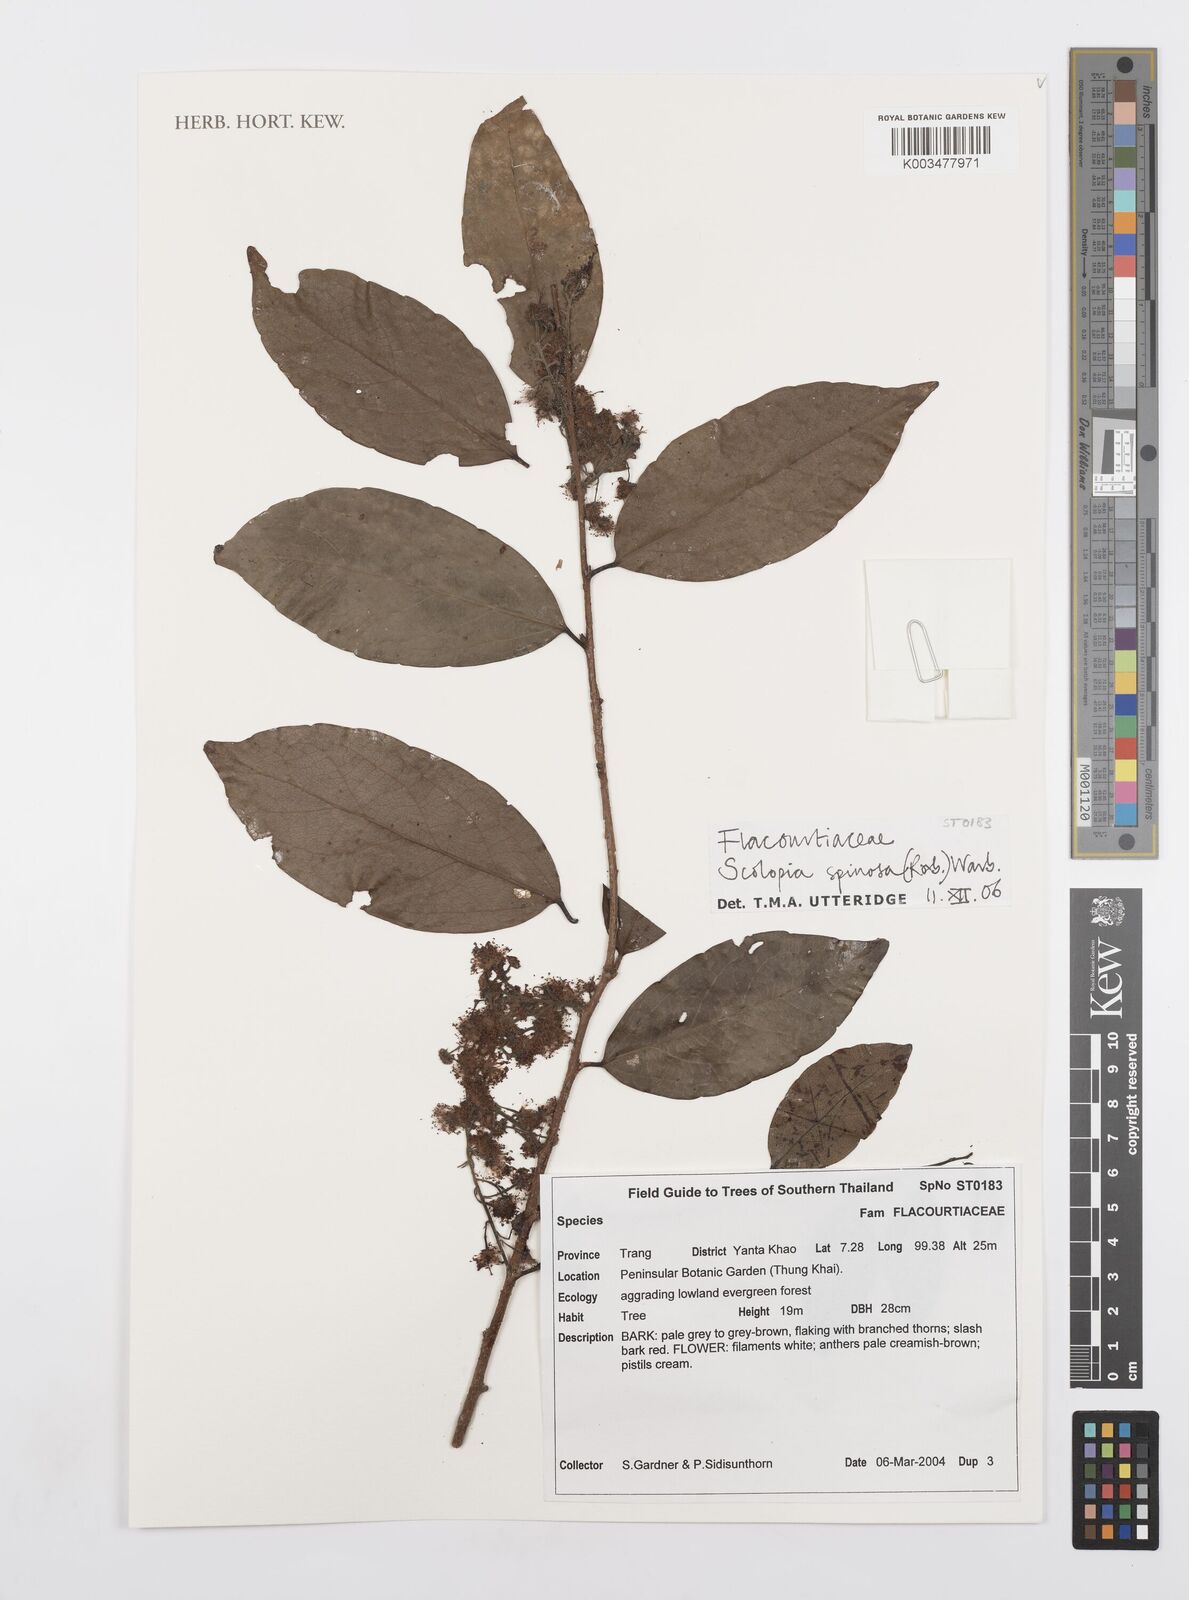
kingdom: Plantae
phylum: Tracheophyta
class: Magnoliopsida
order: Malpighiales
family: Salicaceae
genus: Scolopia
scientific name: Scolopia spinescens
